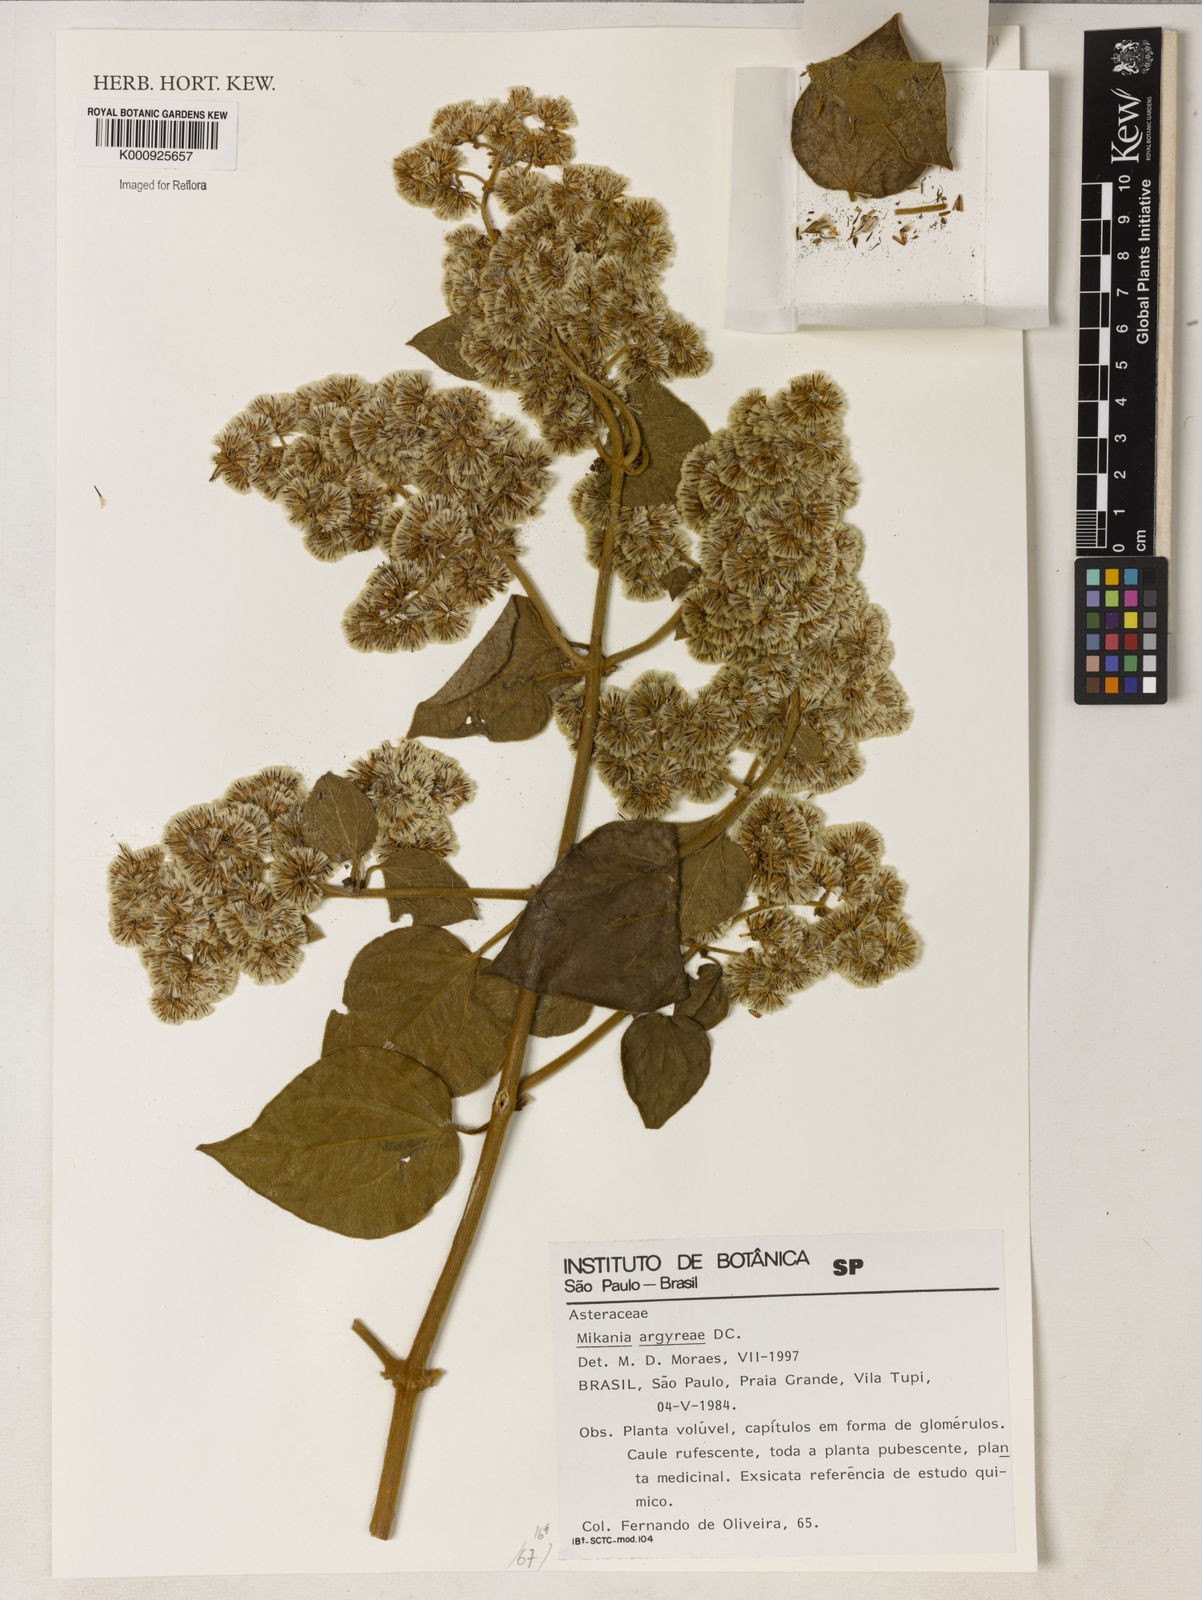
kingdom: Plantae
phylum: Tracheophyta
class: Magnoliopsida
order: Asterales
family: Asteraceae
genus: Mikania
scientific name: Mikania
